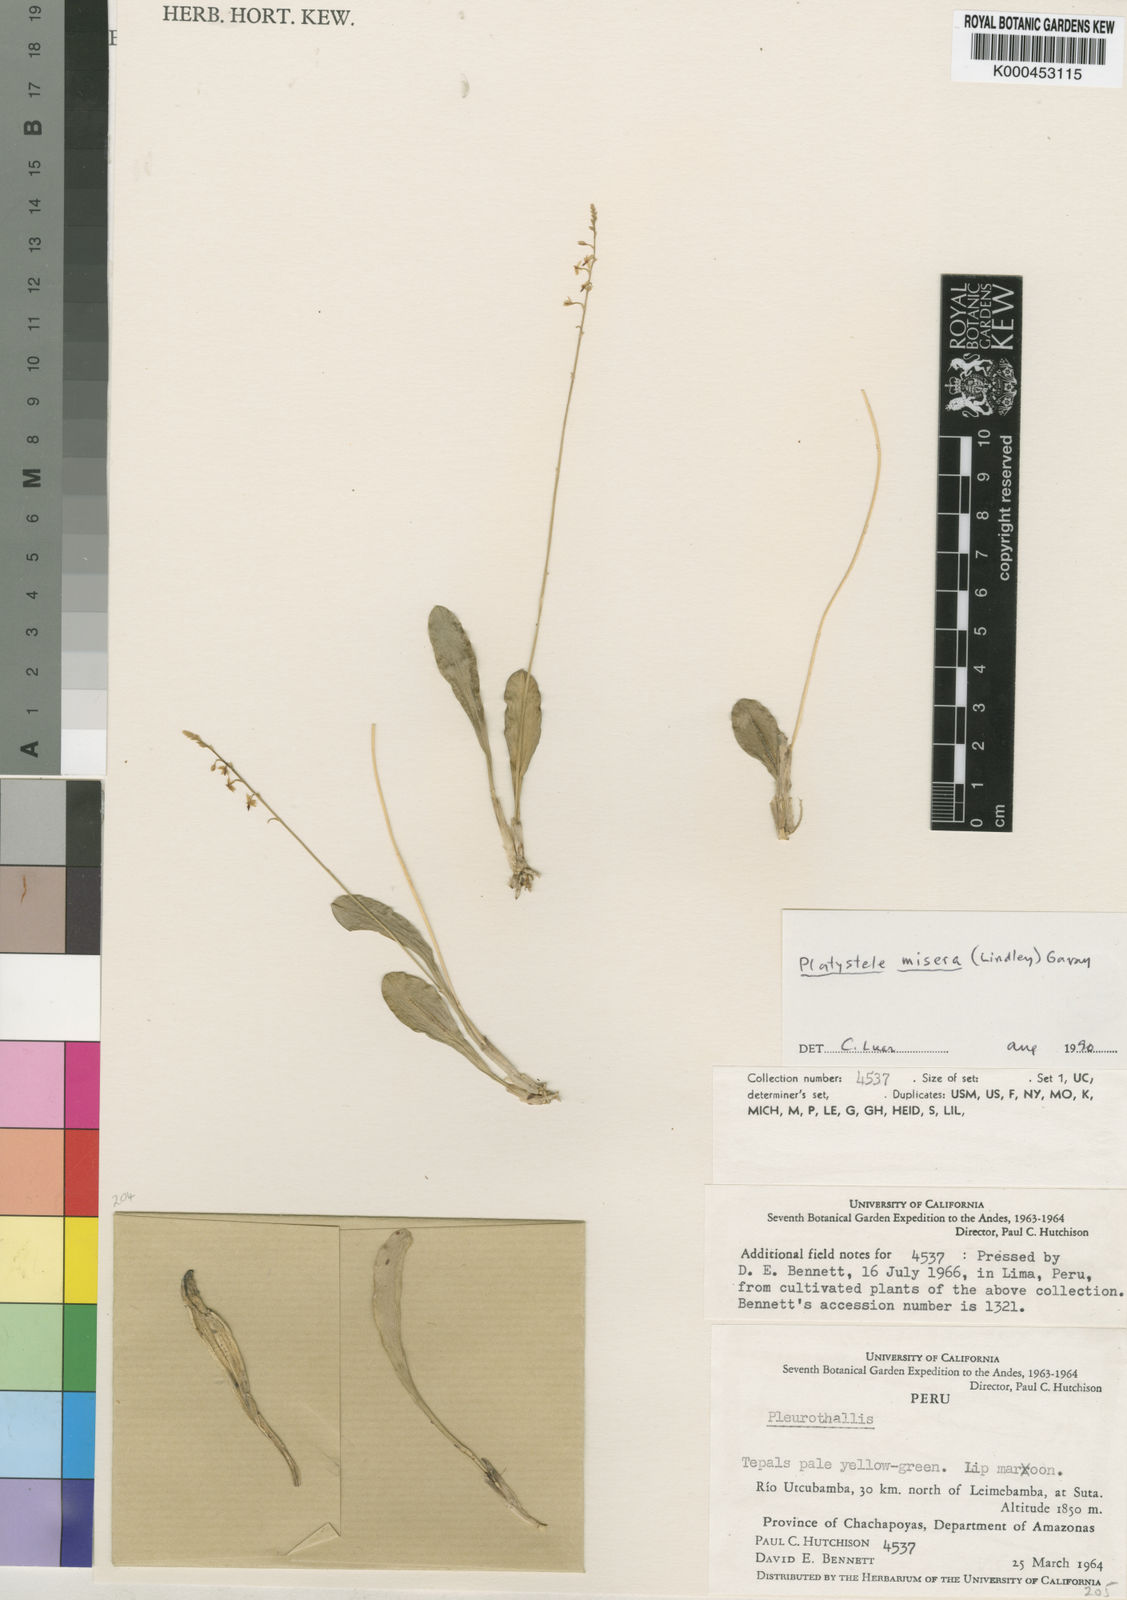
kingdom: Plantae
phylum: Tracheophyta
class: Liliopsida
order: Asparagales
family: Orchidaceae
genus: Platystele
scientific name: Platystele misera
